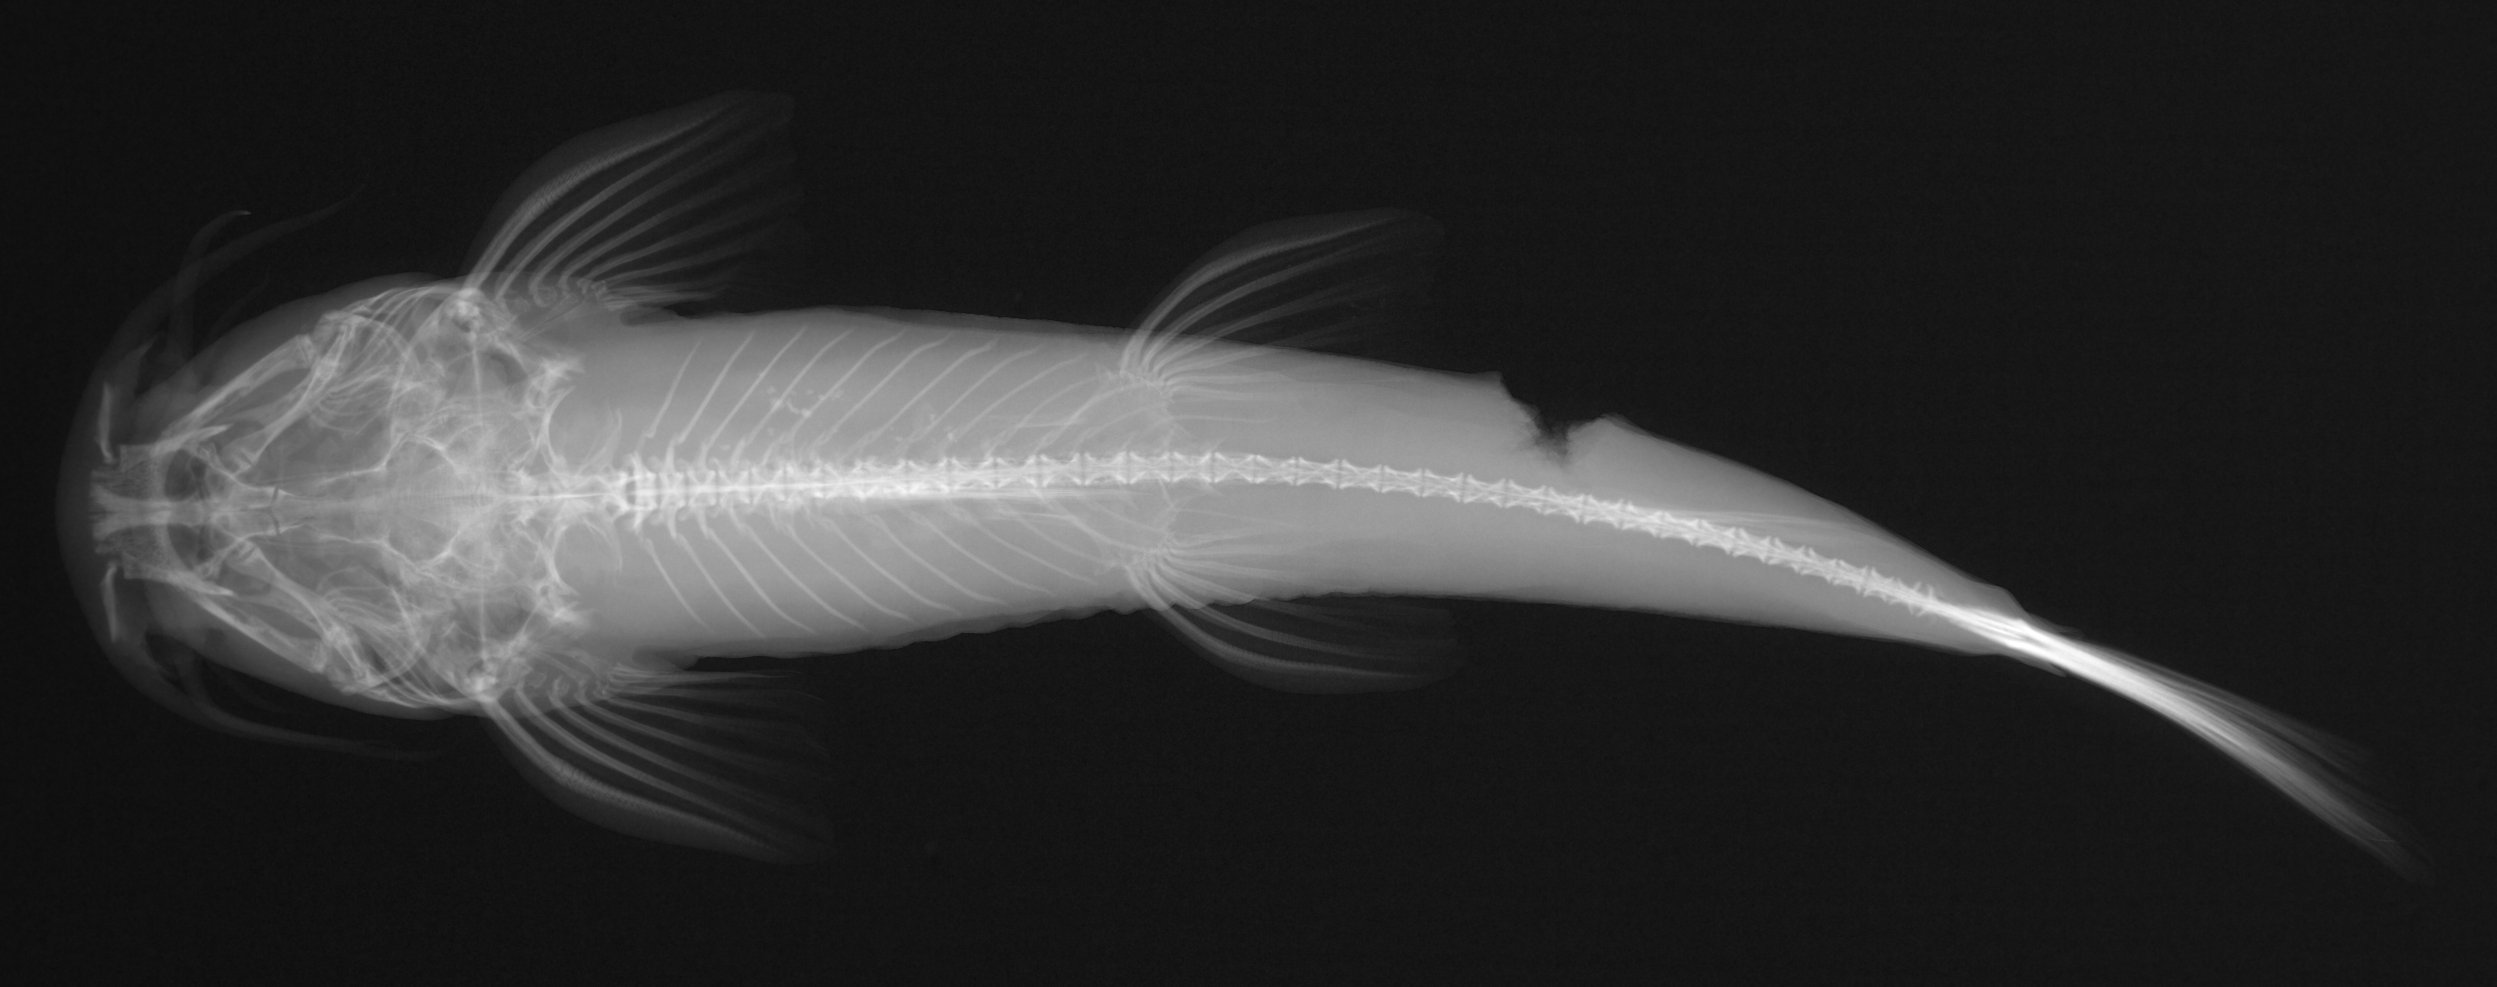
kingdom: Animalia
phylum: Chordata
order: Perciformes
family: Gobiidae
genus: Callogobius
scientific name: Callogobius sclateri
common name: Dusky-banded goby
